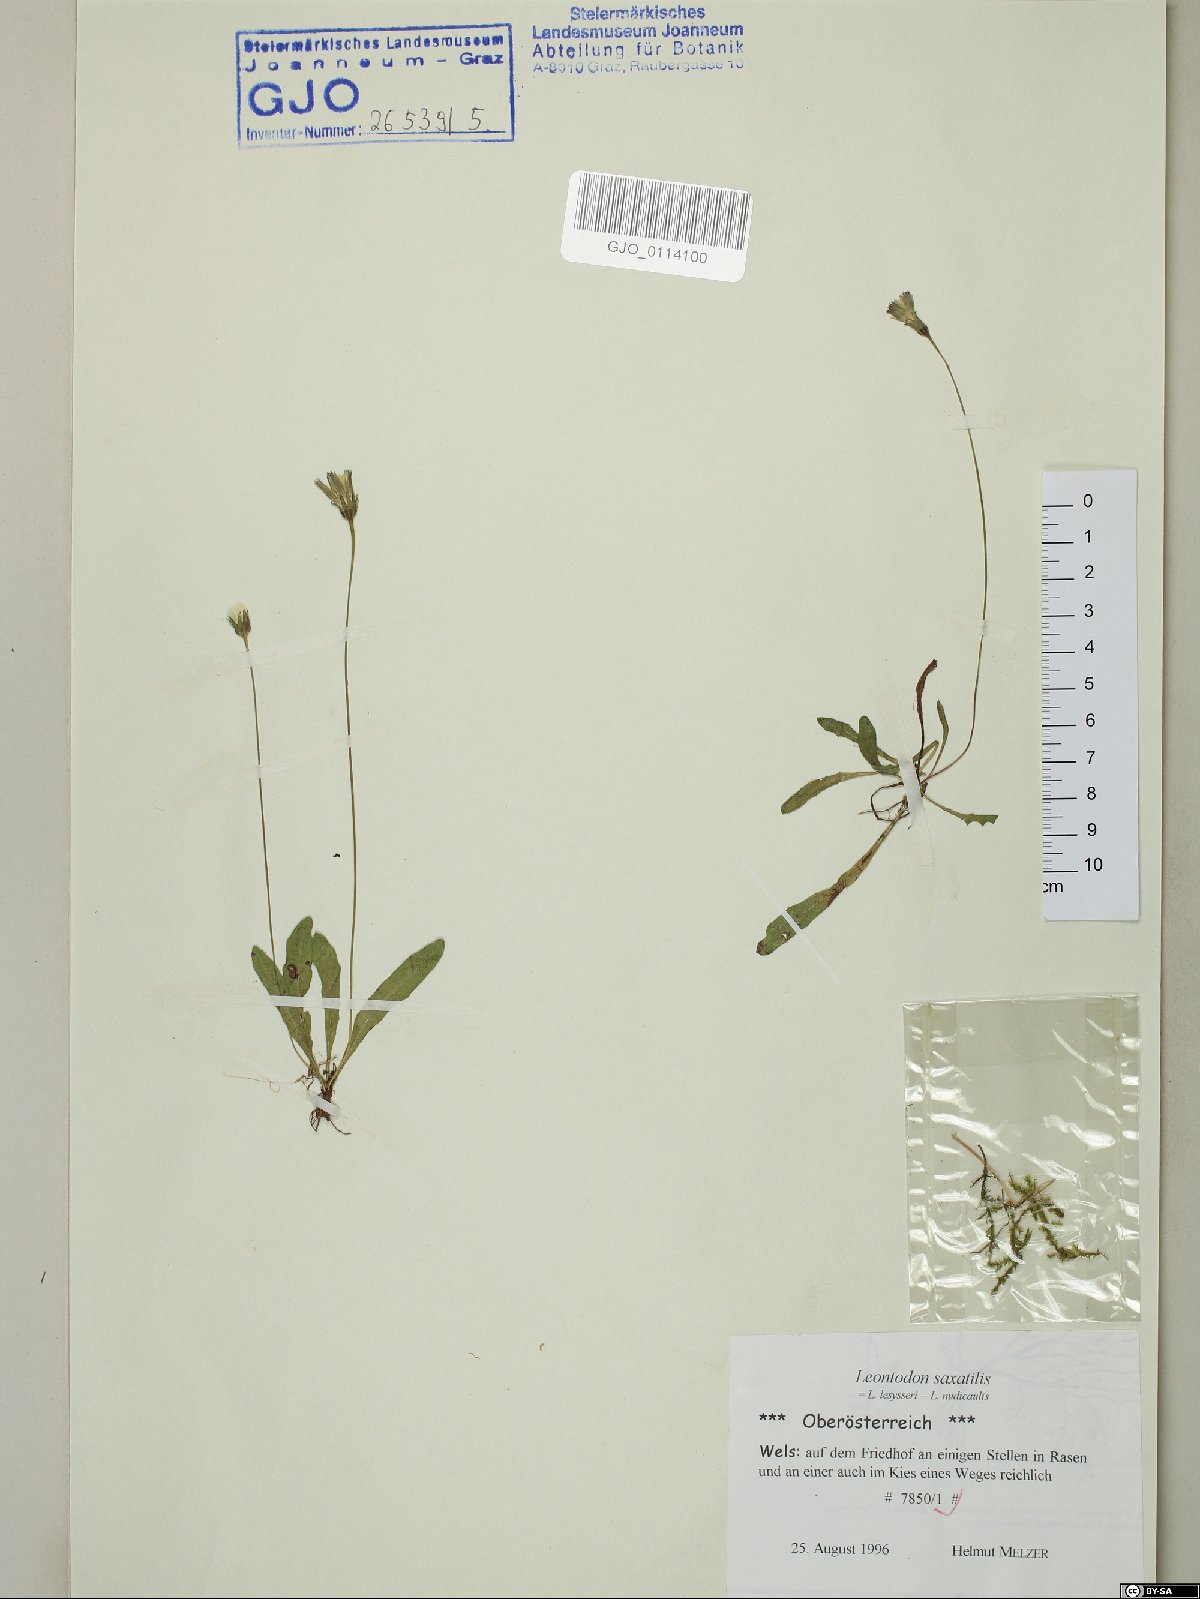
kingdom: Plantae
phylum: Tracheophyta
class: Magnoliopsida
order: Asterales
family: Asteraceae
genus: Thrincia
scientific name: Thrincia saxatilis
